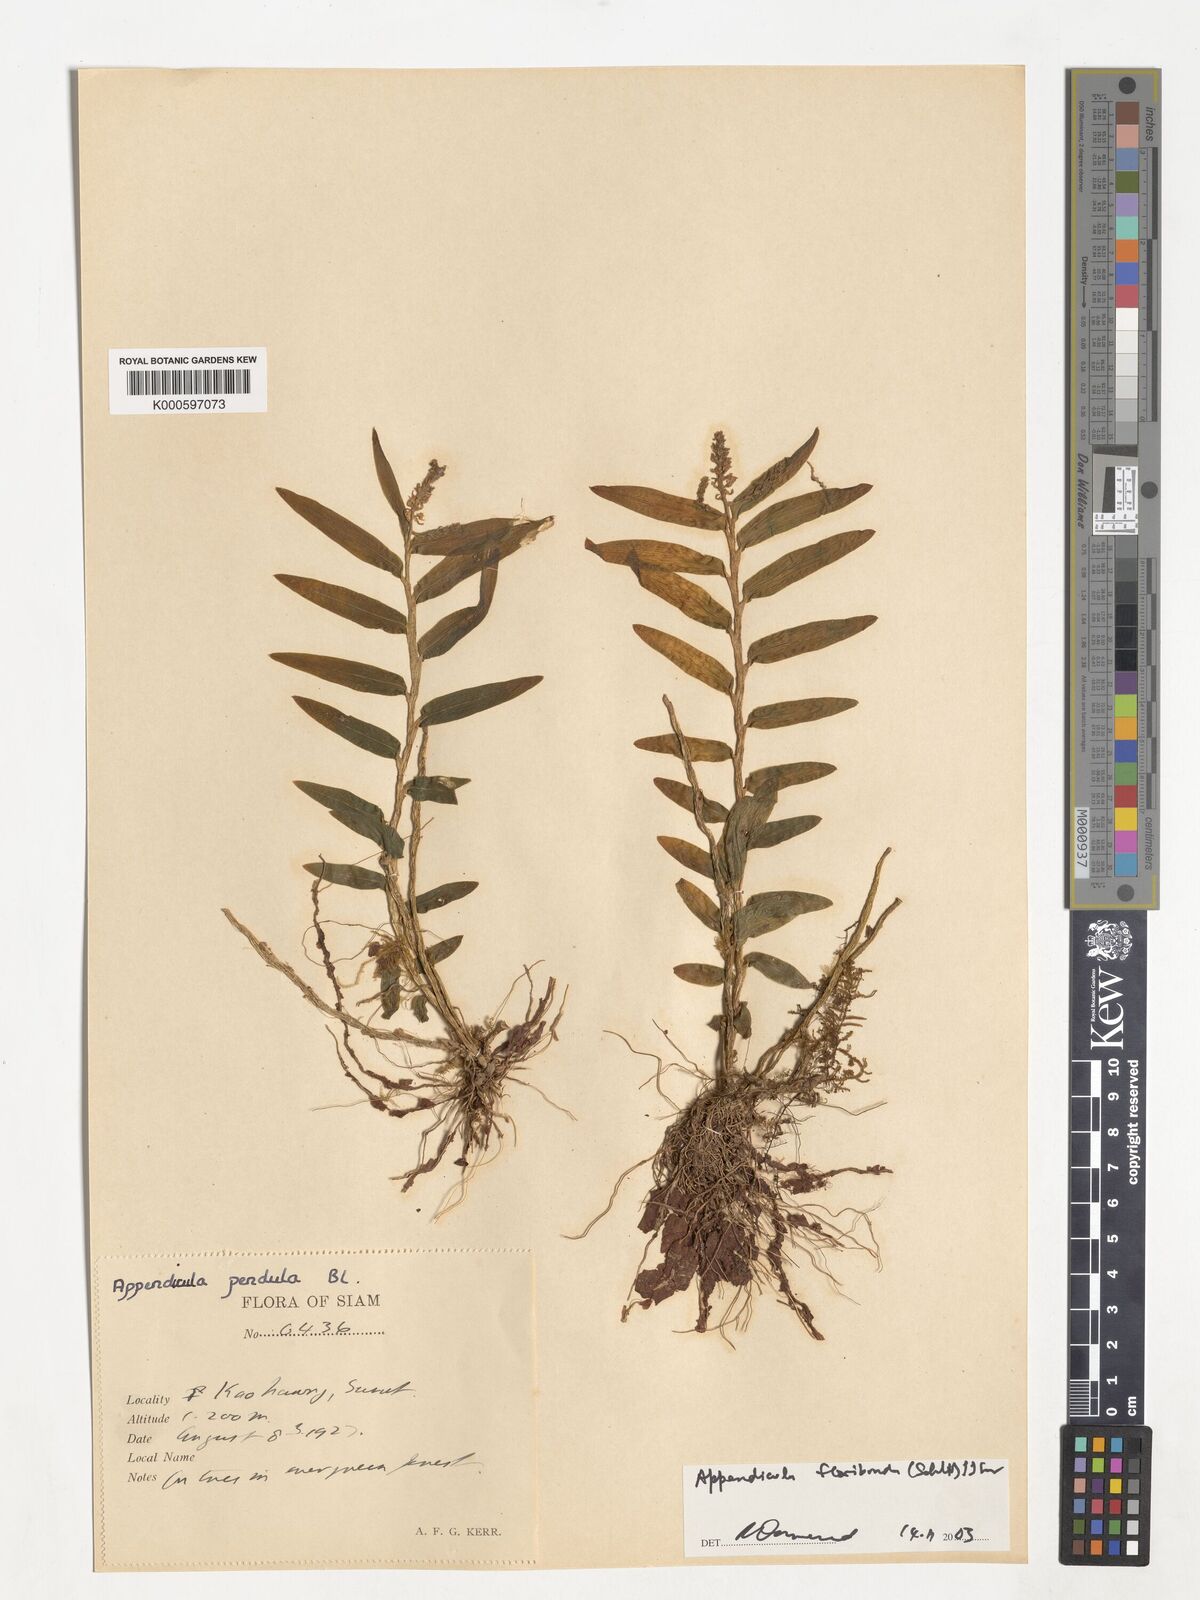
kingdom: Plantae
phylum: Tracheophyta
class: Liliopsida
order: Asparagales
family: Orchidaceae
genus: Appendicula
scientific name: Appendicula floribunda
